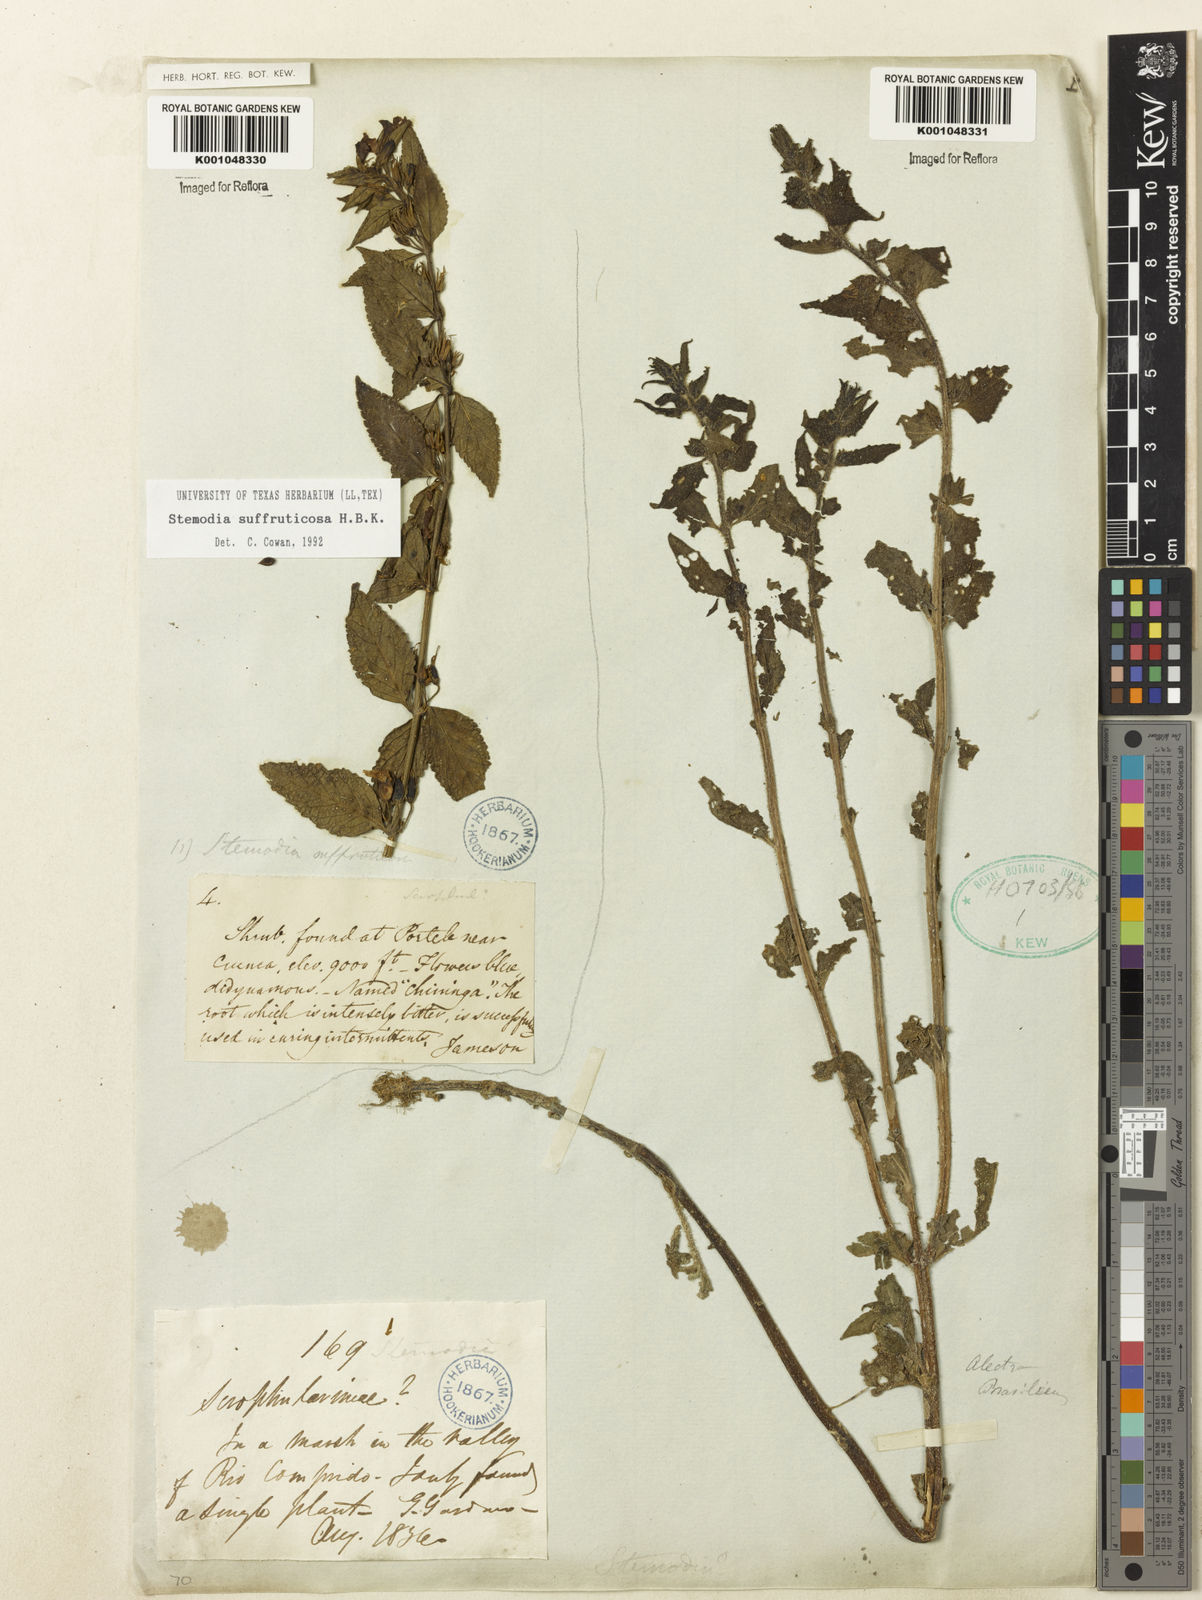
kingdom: Plantae
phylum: Tracheophyta
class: Magnoliopsida
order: Lamiales
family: Plantaginaceae
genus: Stemodia
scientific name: Stemodia
